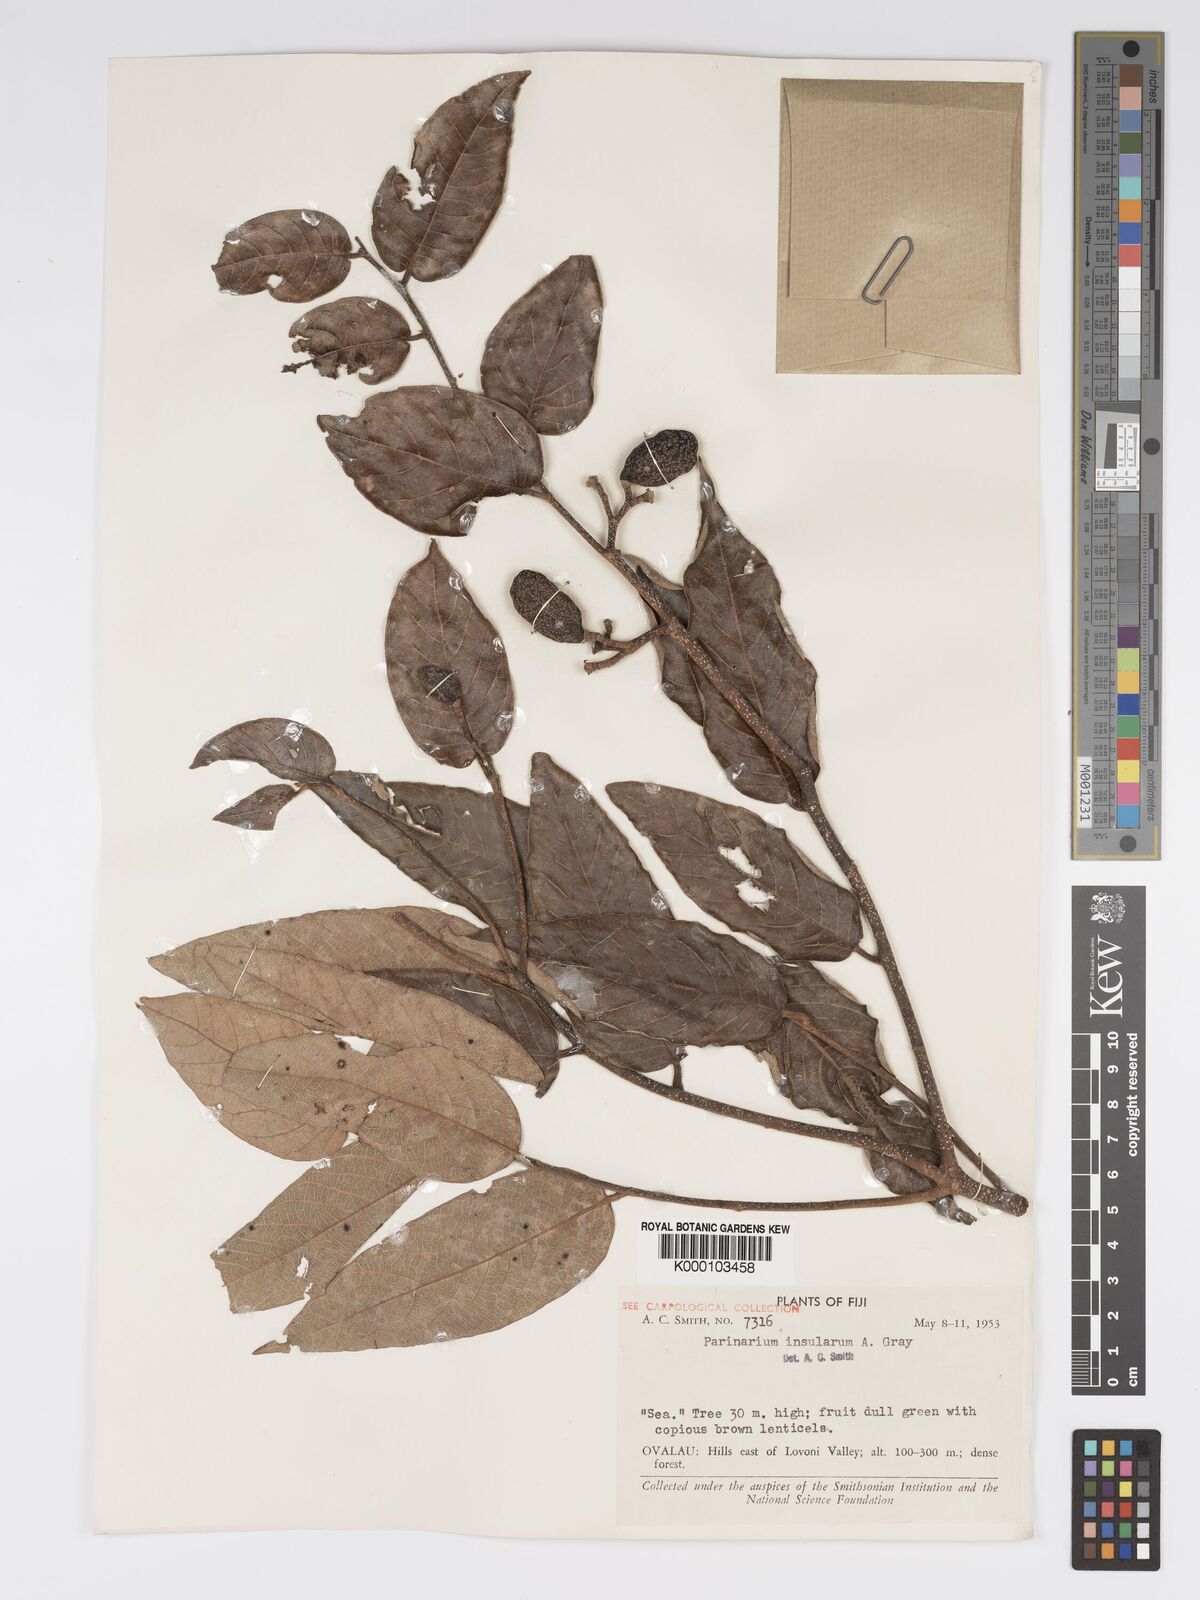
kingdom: Plantae
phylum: Tracheophyta
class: Magnoliopsida
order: Malpighiales
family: Chrysobalanaceae
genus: Parinari
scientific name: Parinari insularum
